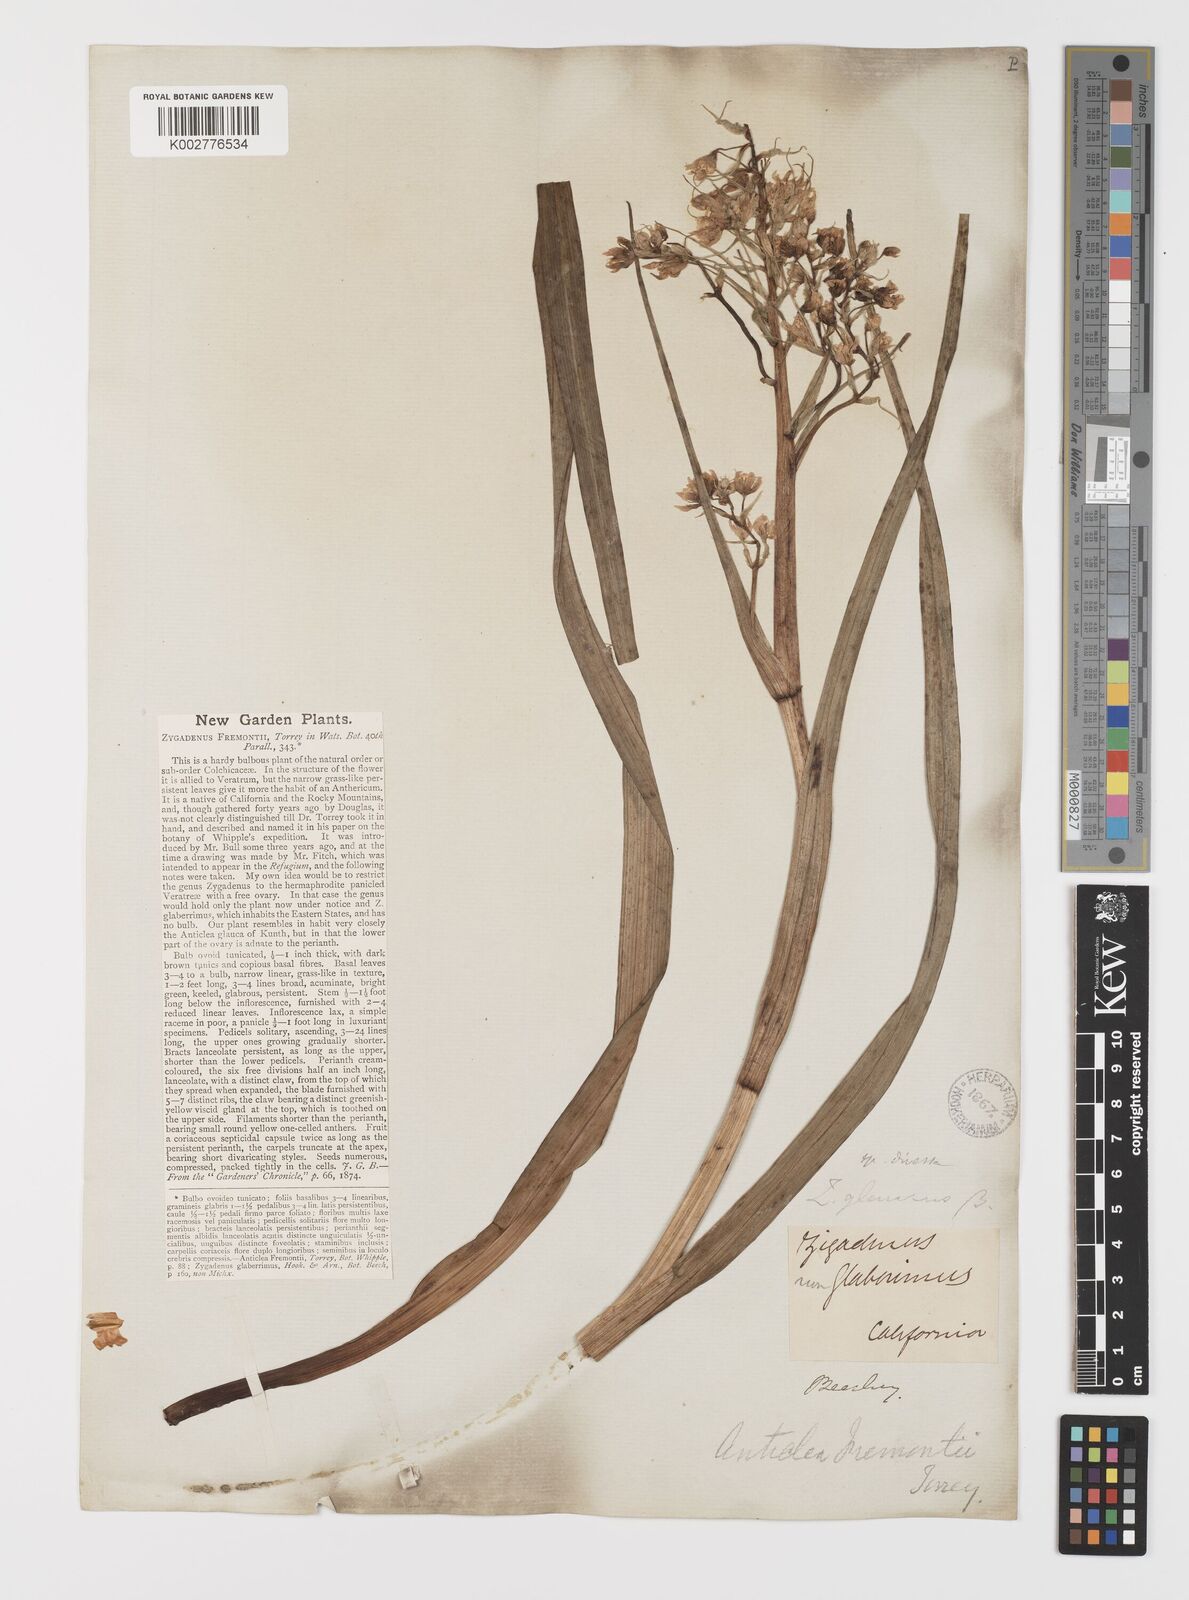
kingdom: Plantae
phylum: Tracheophyta
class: Liliopsida
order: Liliales
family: Melanthiaceae
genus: Toxicoscordion
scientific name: Toxicoscordion fremontii
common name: Fremont's death camas
